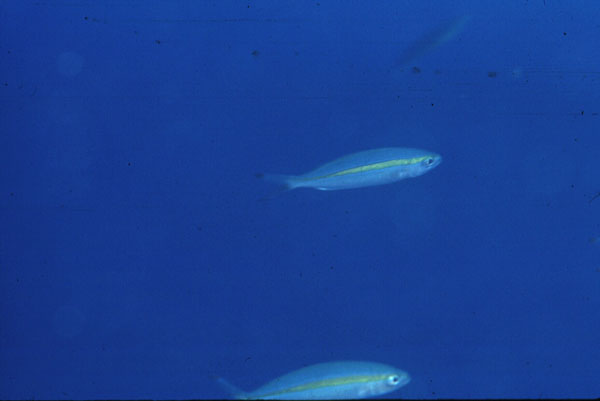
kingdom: Animalia
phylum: Chordata
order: Perciformes
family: Caesionidae
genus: Pterocaesio
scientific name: Pterocaesio chrysozona
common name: Goldband fusilier
